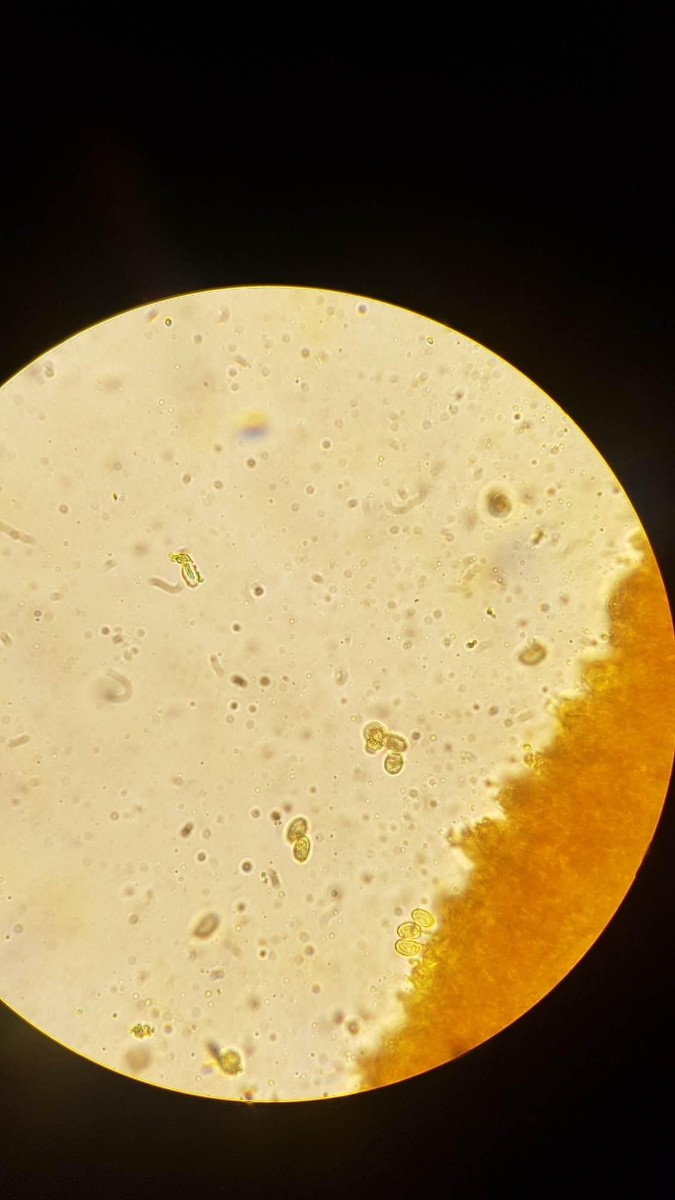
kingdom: Fungi
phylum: Basidiomycota
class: Agaricomycetes
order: Agaricales
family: Tricholomataceae
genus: Lepista
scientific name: Lepista
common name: hekseringshat
